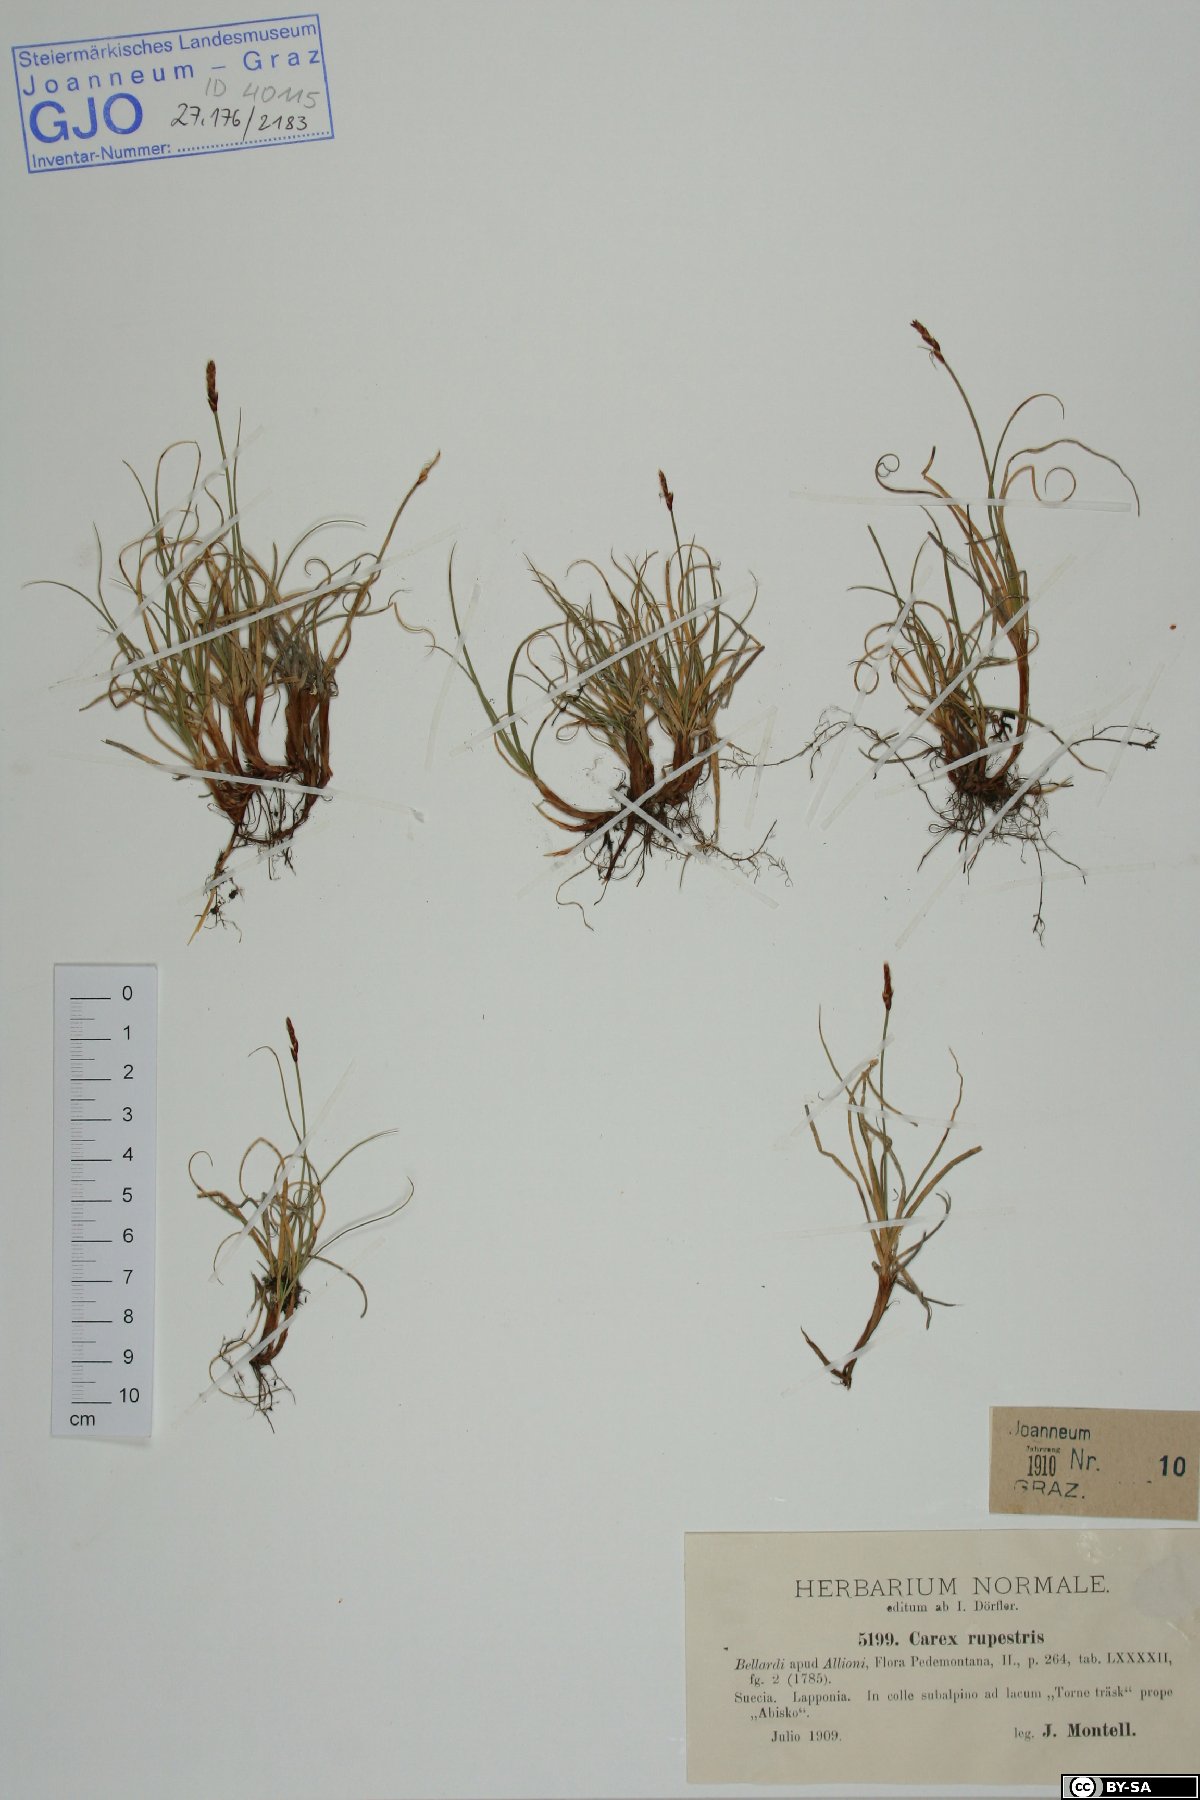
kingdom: Plantae
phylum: Tracheophyta
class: Liliopsida
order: Poales
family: Cyperaceae
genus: Carex
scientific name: Carex rupestris
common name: Rock sedge
